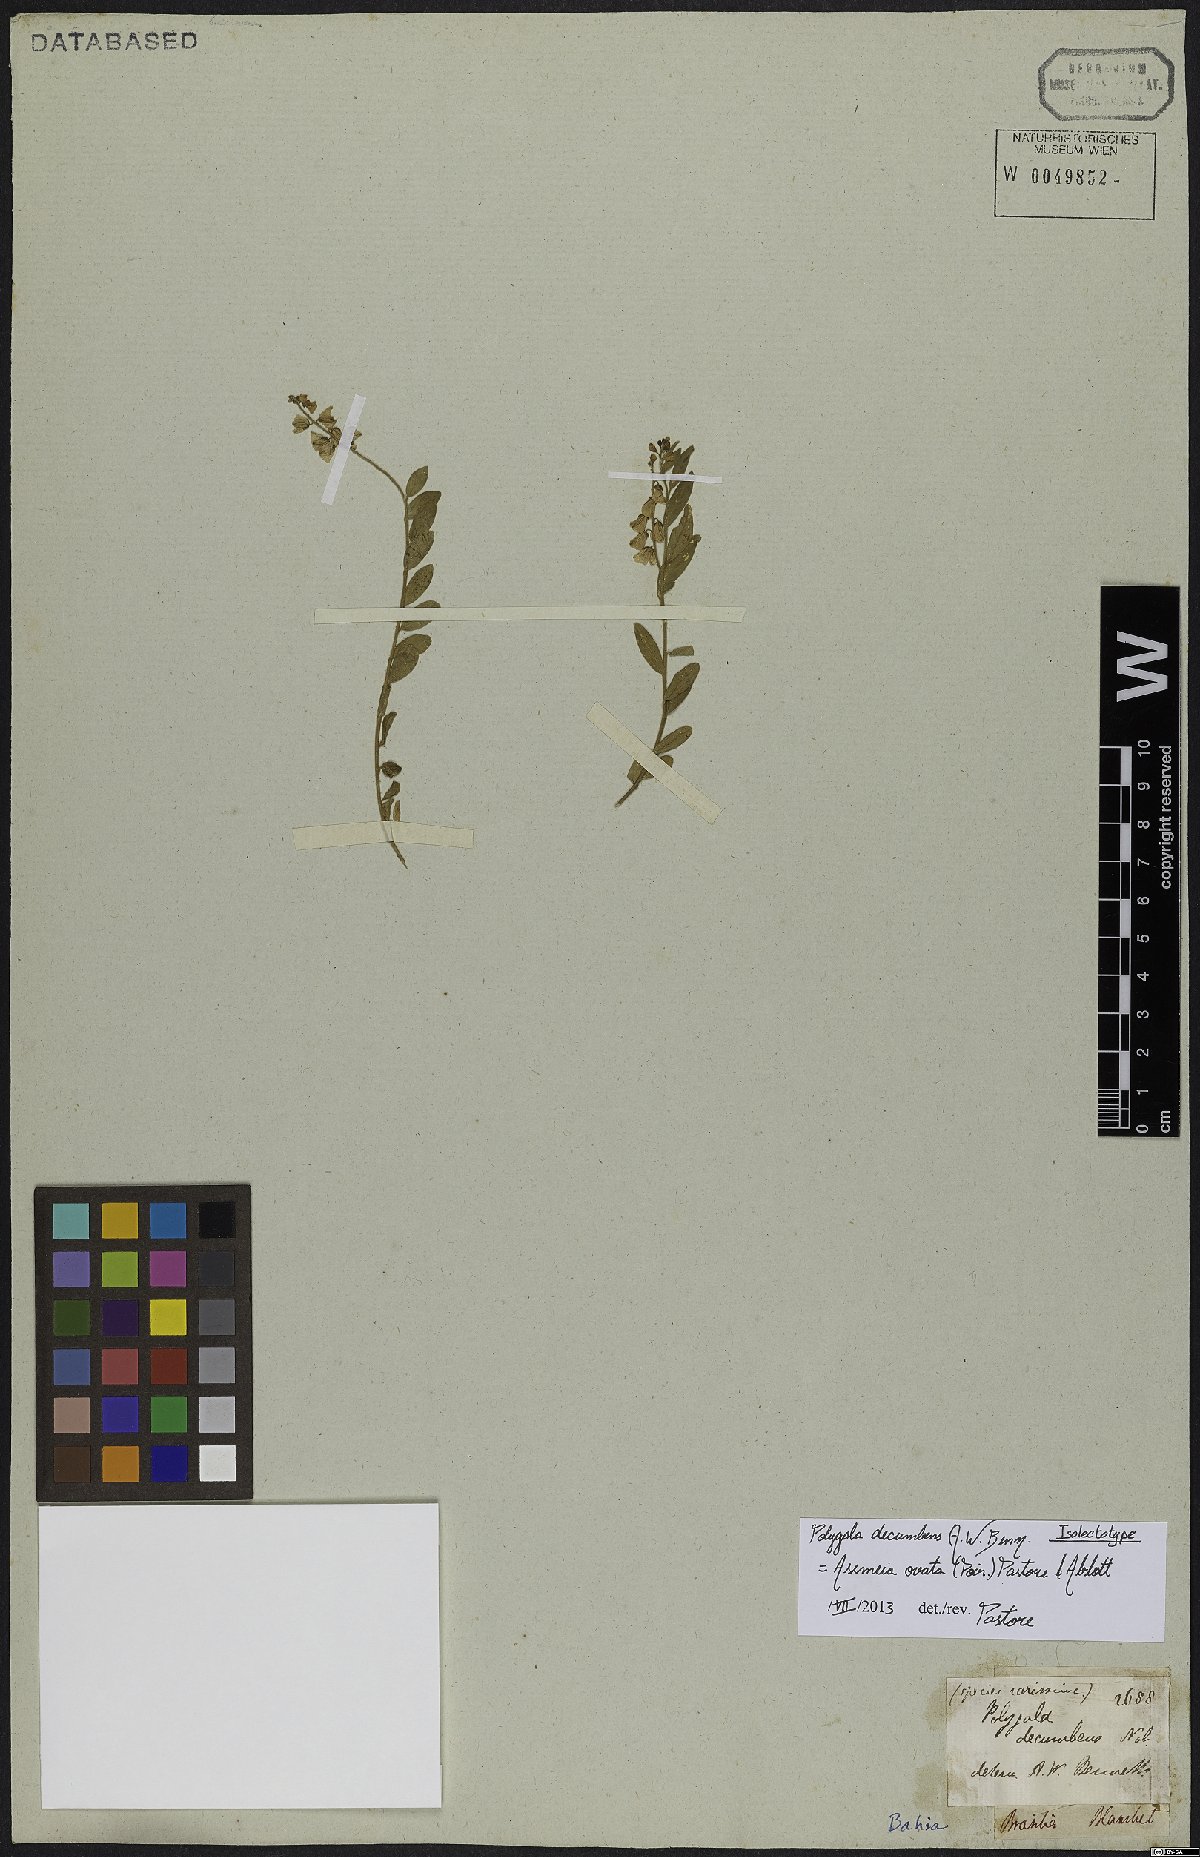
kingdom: Plantae
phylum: Tracheophyta
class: Magnoliopsida
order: Fabales
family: Polygalaceae
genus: Asemeia
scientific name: Asemeia ovata
